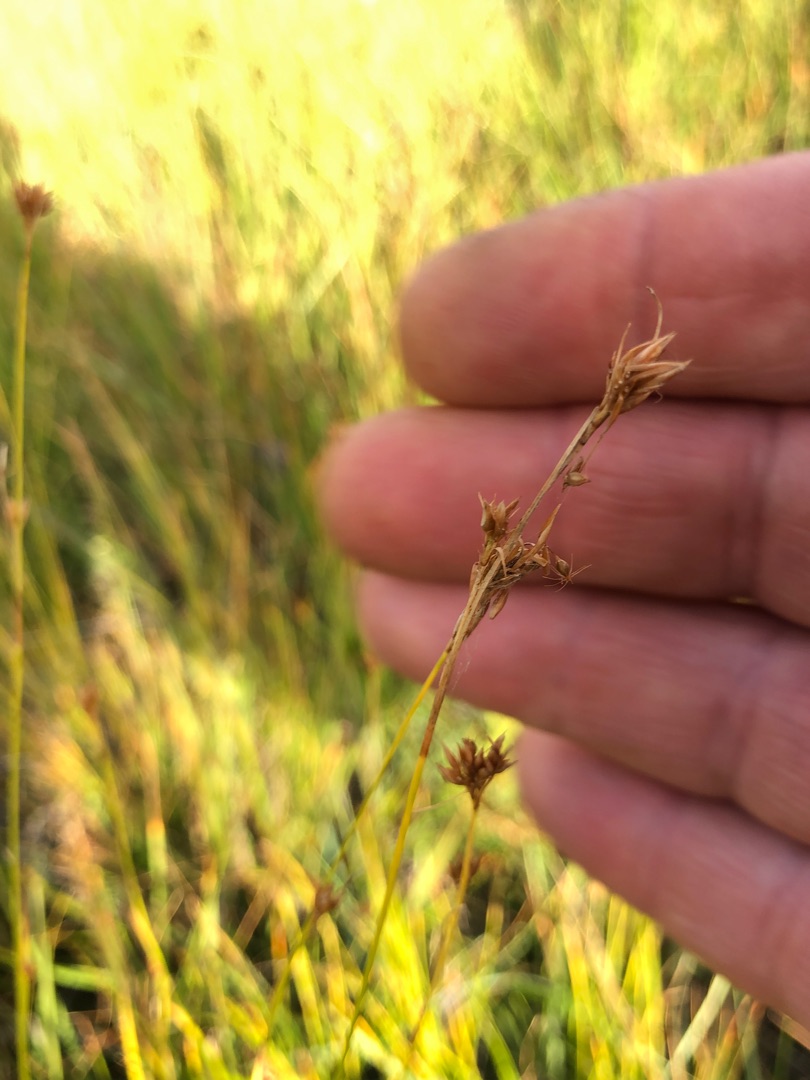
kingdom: Plantae
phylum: Tracheophyta
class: Liliopsida
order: Poales
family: Cyperaceae
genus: Rhynchospora
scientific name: Rhynchospora alba
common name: Hvid næbfrø
